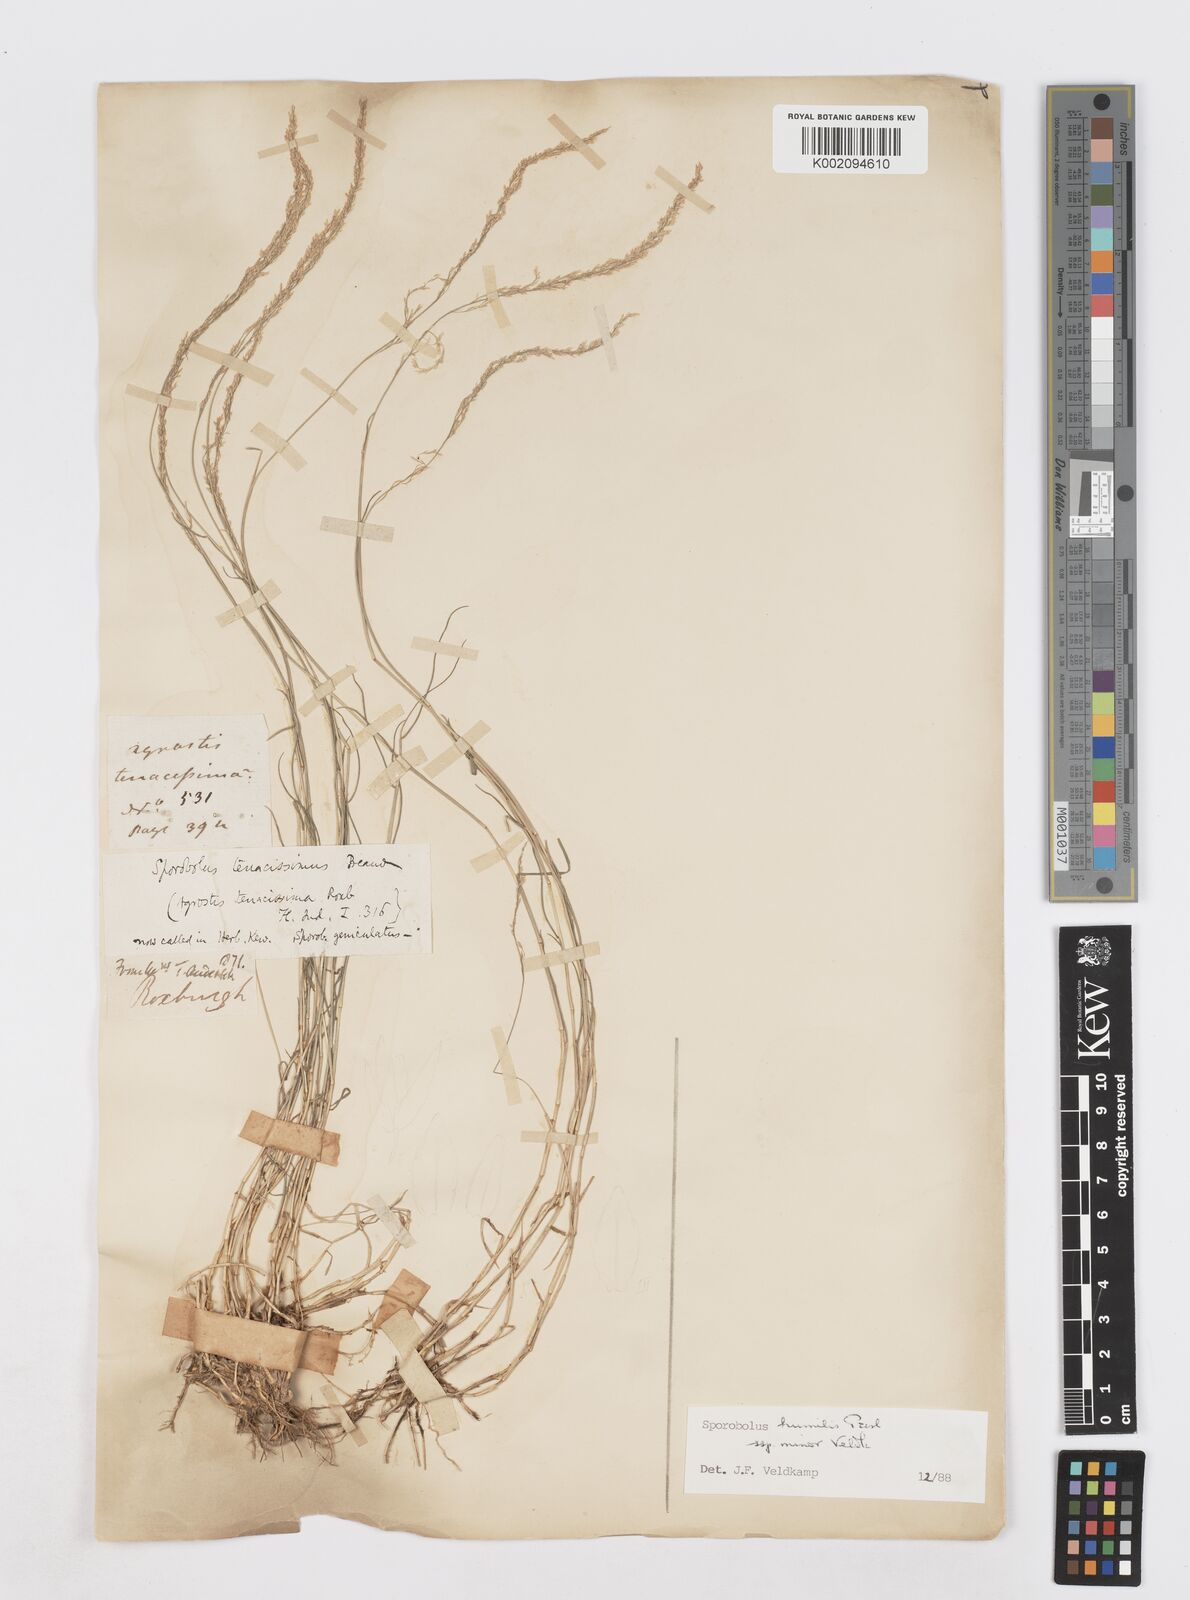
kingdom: Plantae
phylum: Tracheophyta
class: Liliopsida
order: Poales
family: Poaceae
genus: Sporobolus
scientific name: Sporobolus virginicus
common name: Beach dropseed
